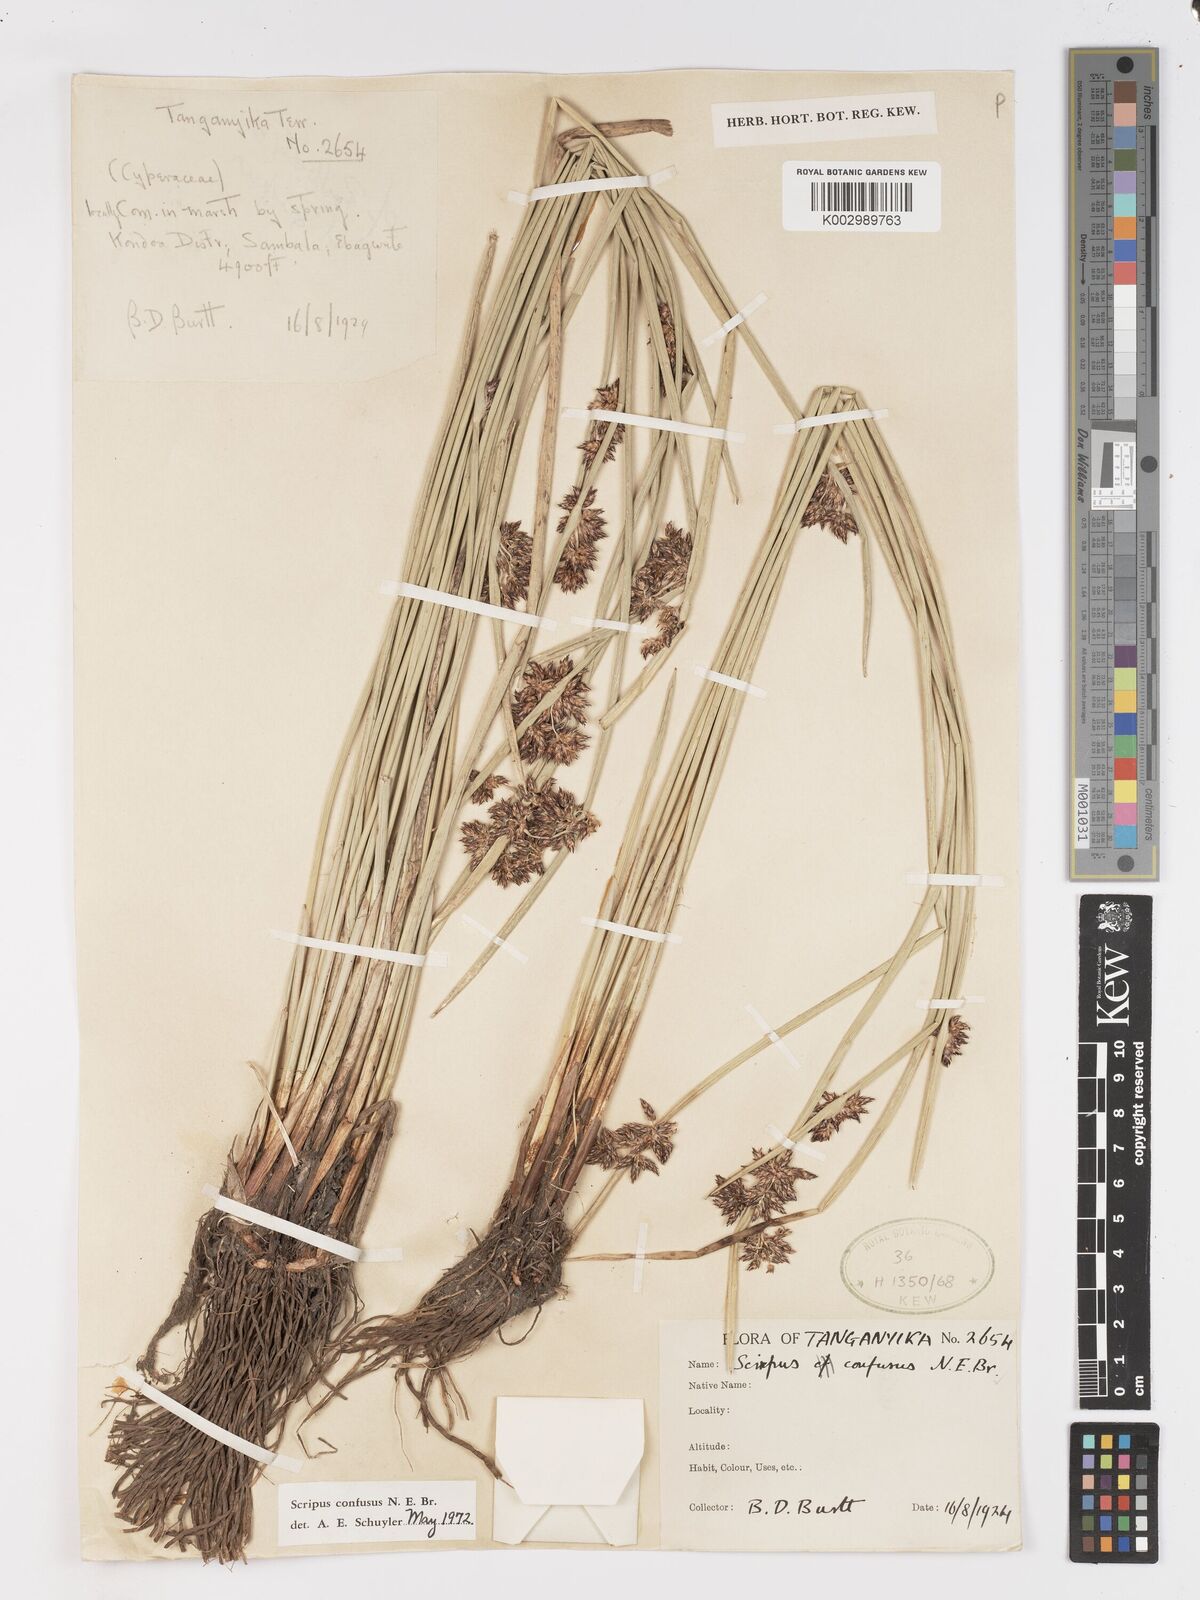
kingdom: Plantae
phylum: Tracheophyta
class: Liliopsida
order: Poales
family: Cyperaceae
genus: Schoenoplectiella
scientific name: Schoenoplectiella confusa
